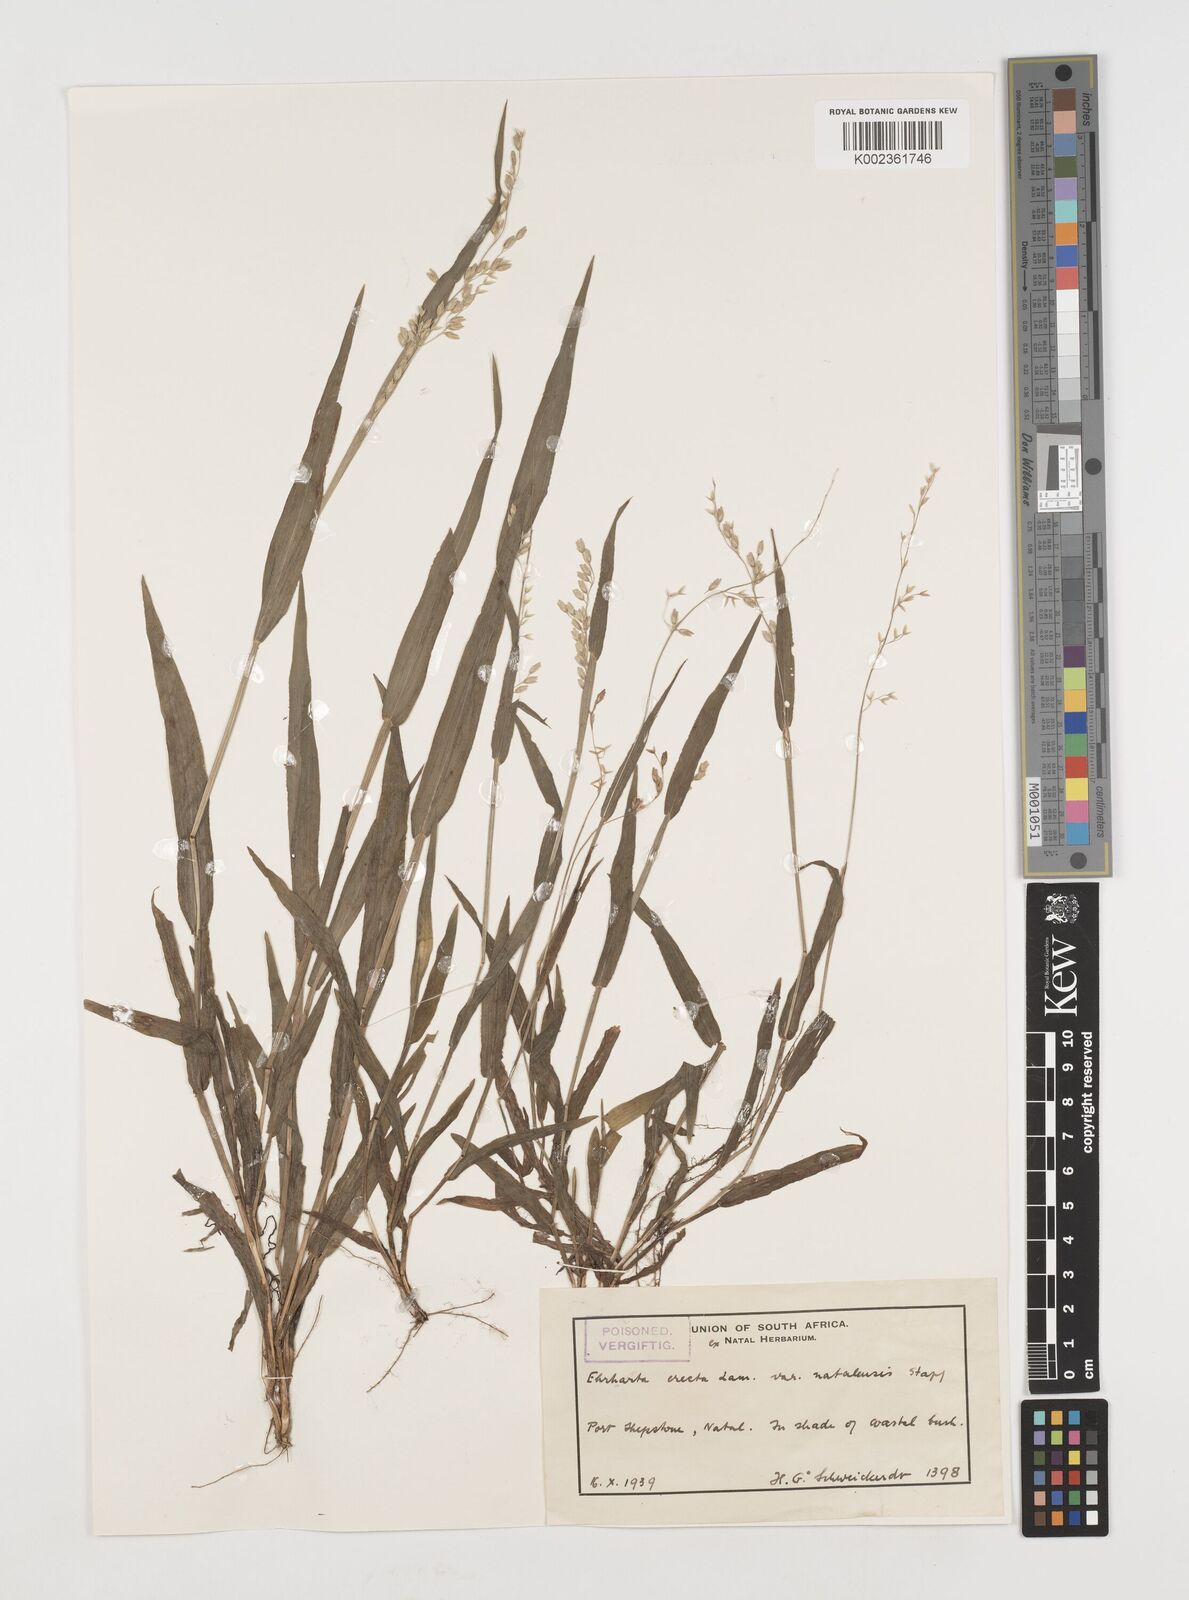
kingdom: Plantae
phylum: Tracheophyta
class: Liliopsida
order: Poales
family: Poaceae
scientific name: Poaceae
